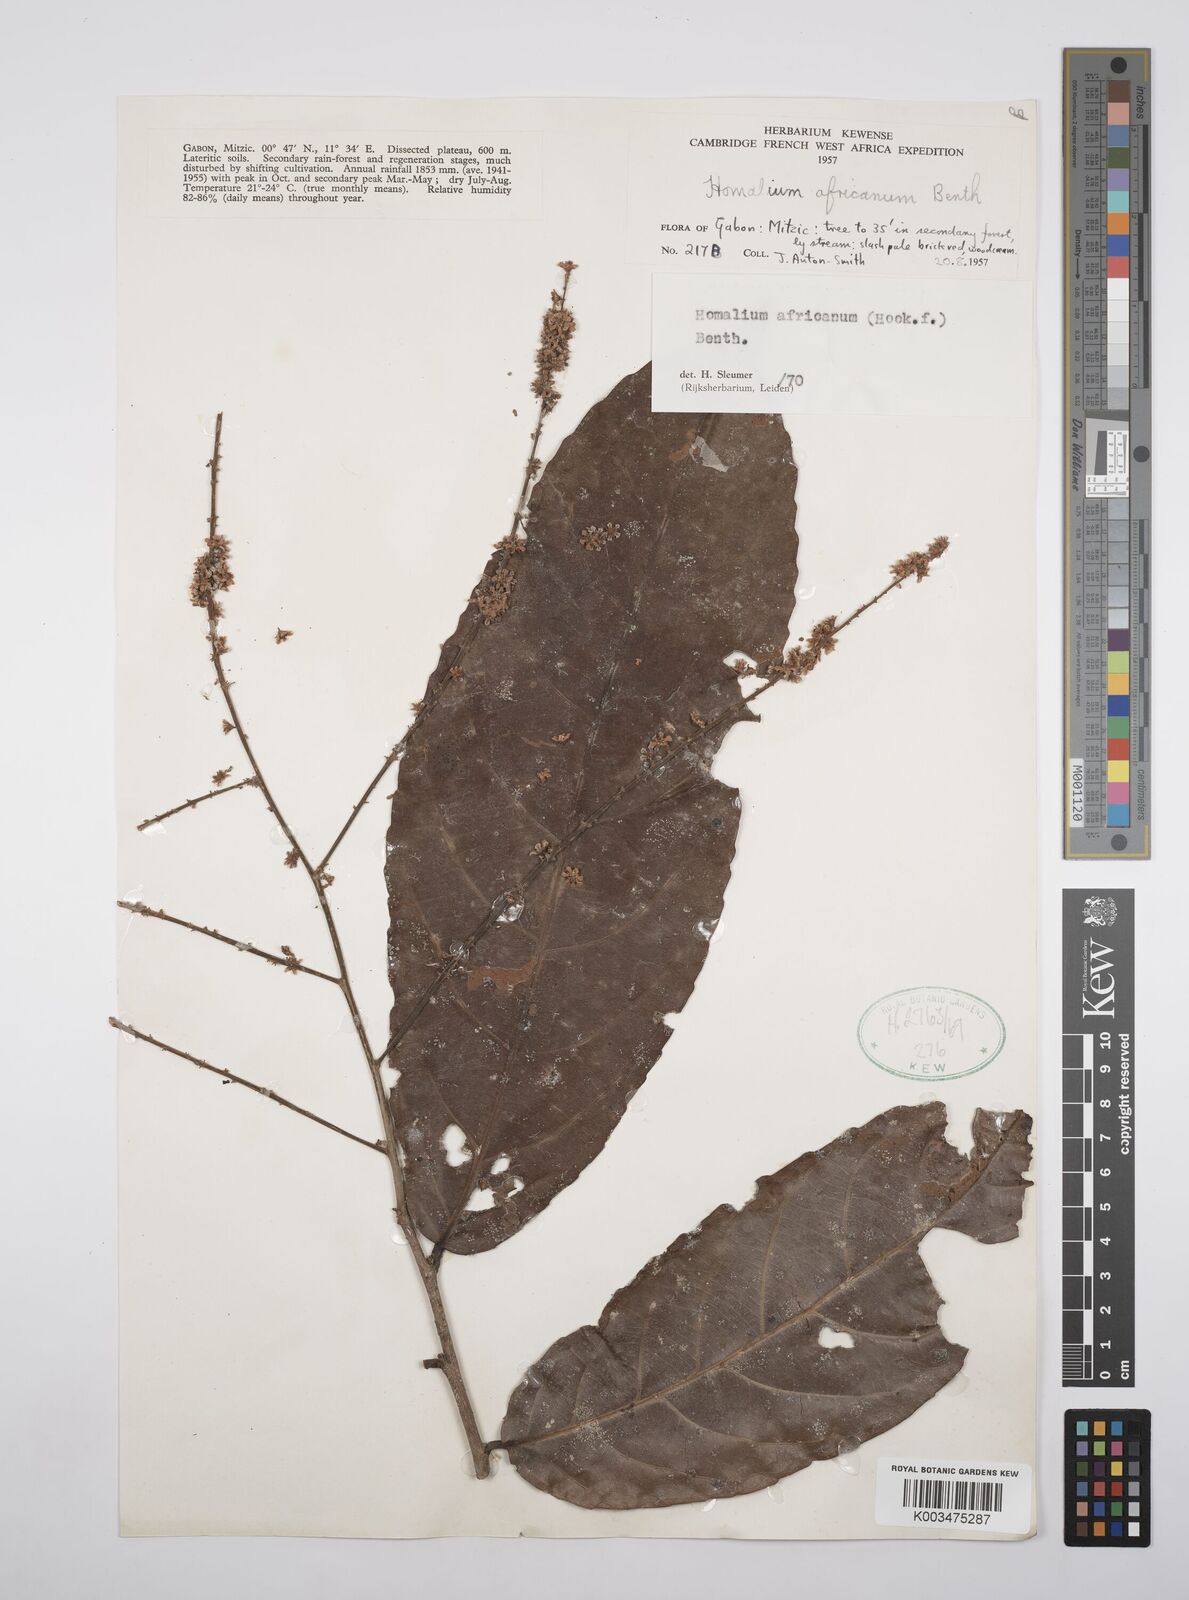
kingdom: Plantae
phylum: Tracheophyta
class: Magnoliopsida
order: Malpighiales
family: Salicaceae
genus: Homalium
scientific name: Homalium africanum
